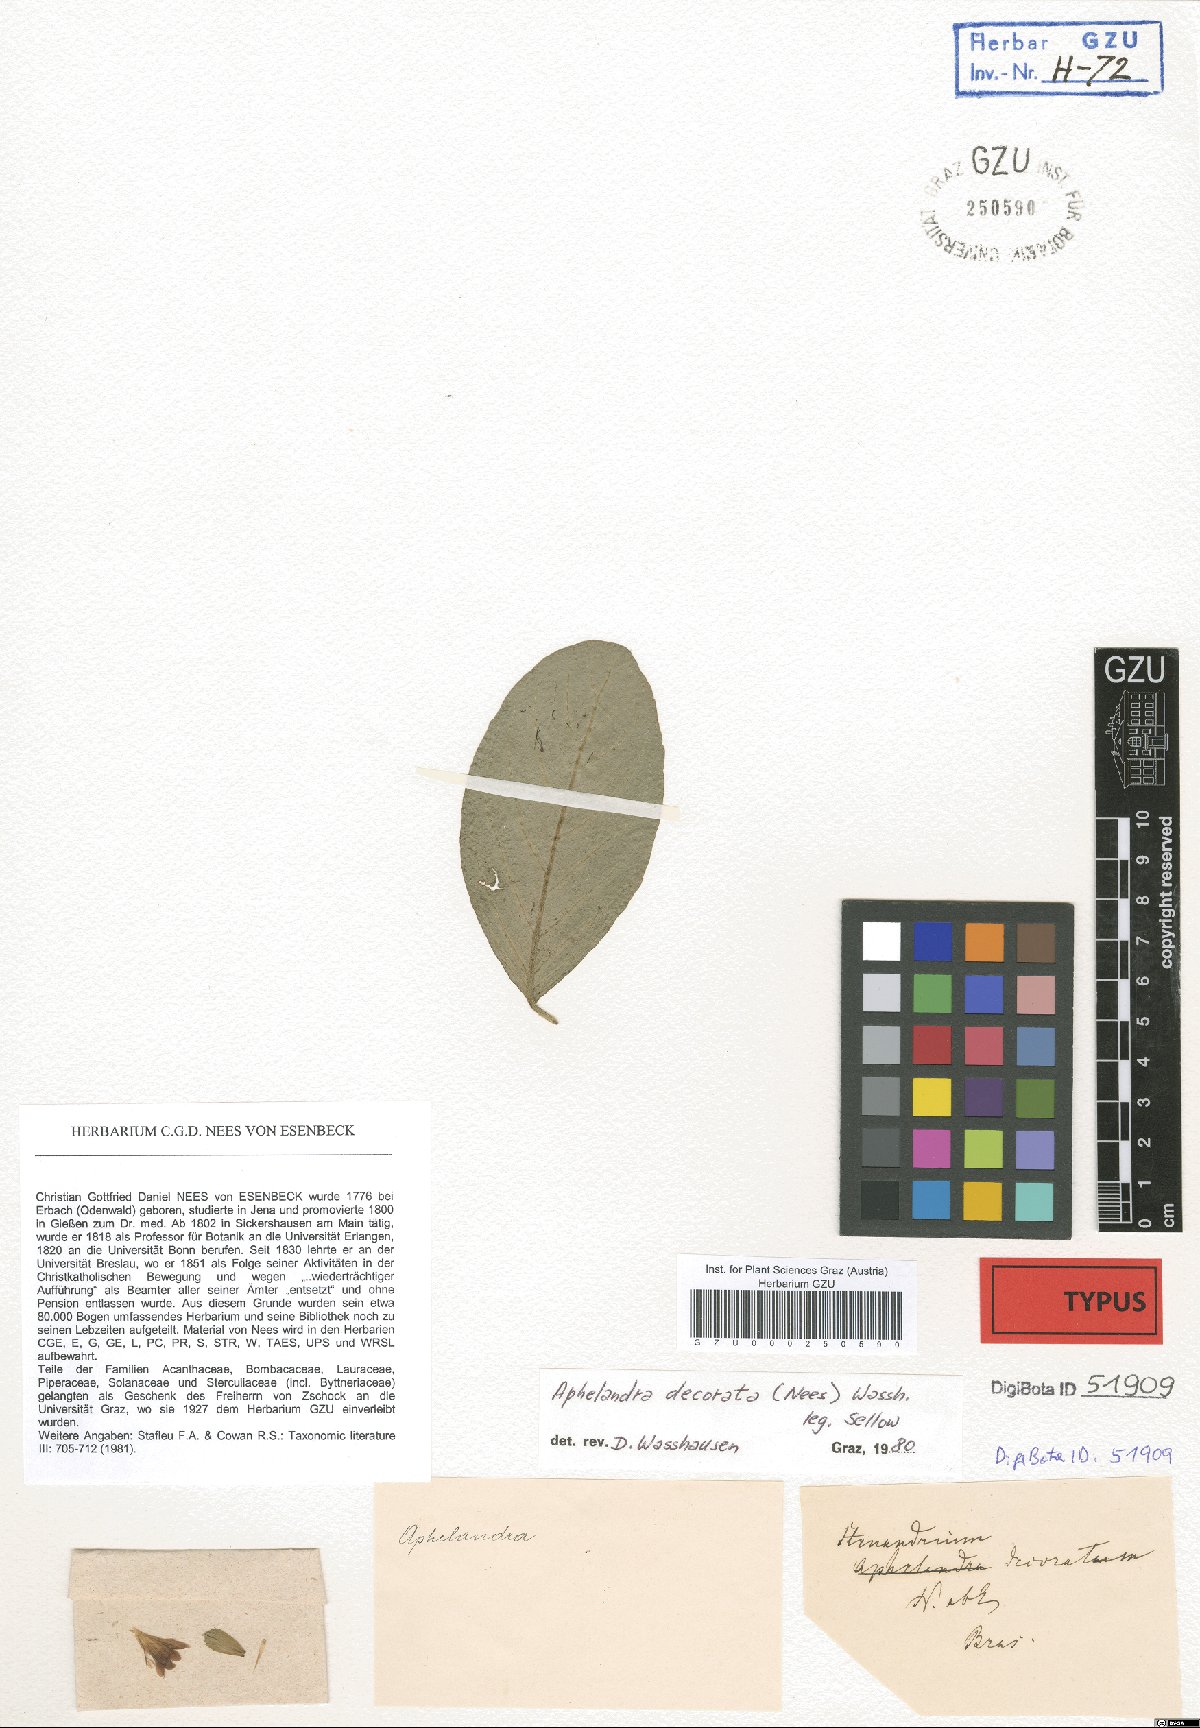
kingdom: Plantae
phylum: Tracheophyta
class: Magnoliopsida
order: Lamiales
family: Acanthaceae
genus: Aphelandra
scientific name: Aphelandra decorata
